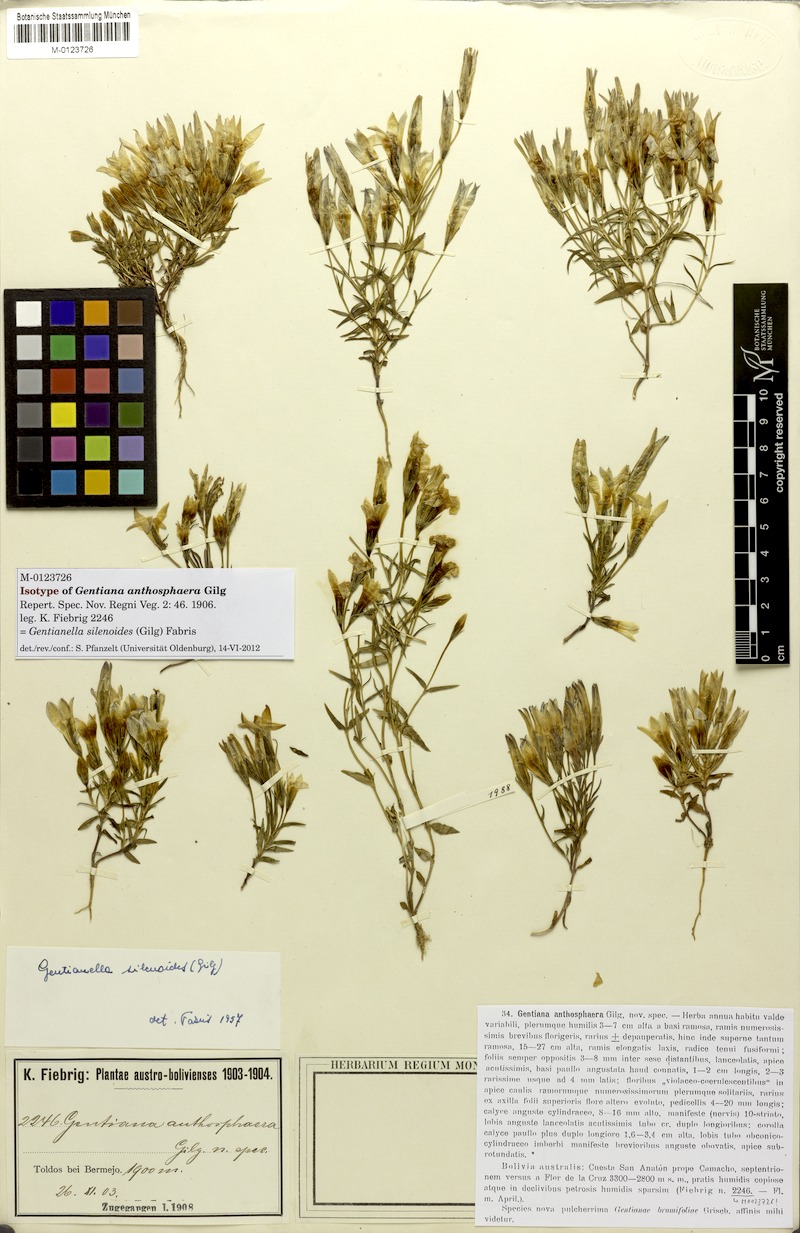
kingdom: Plantae
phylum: Tracheophyta
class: Magnoliopsida
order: Gentianales
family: Gentianaceae
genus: Gentianella
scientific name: Gentianella silenoides
